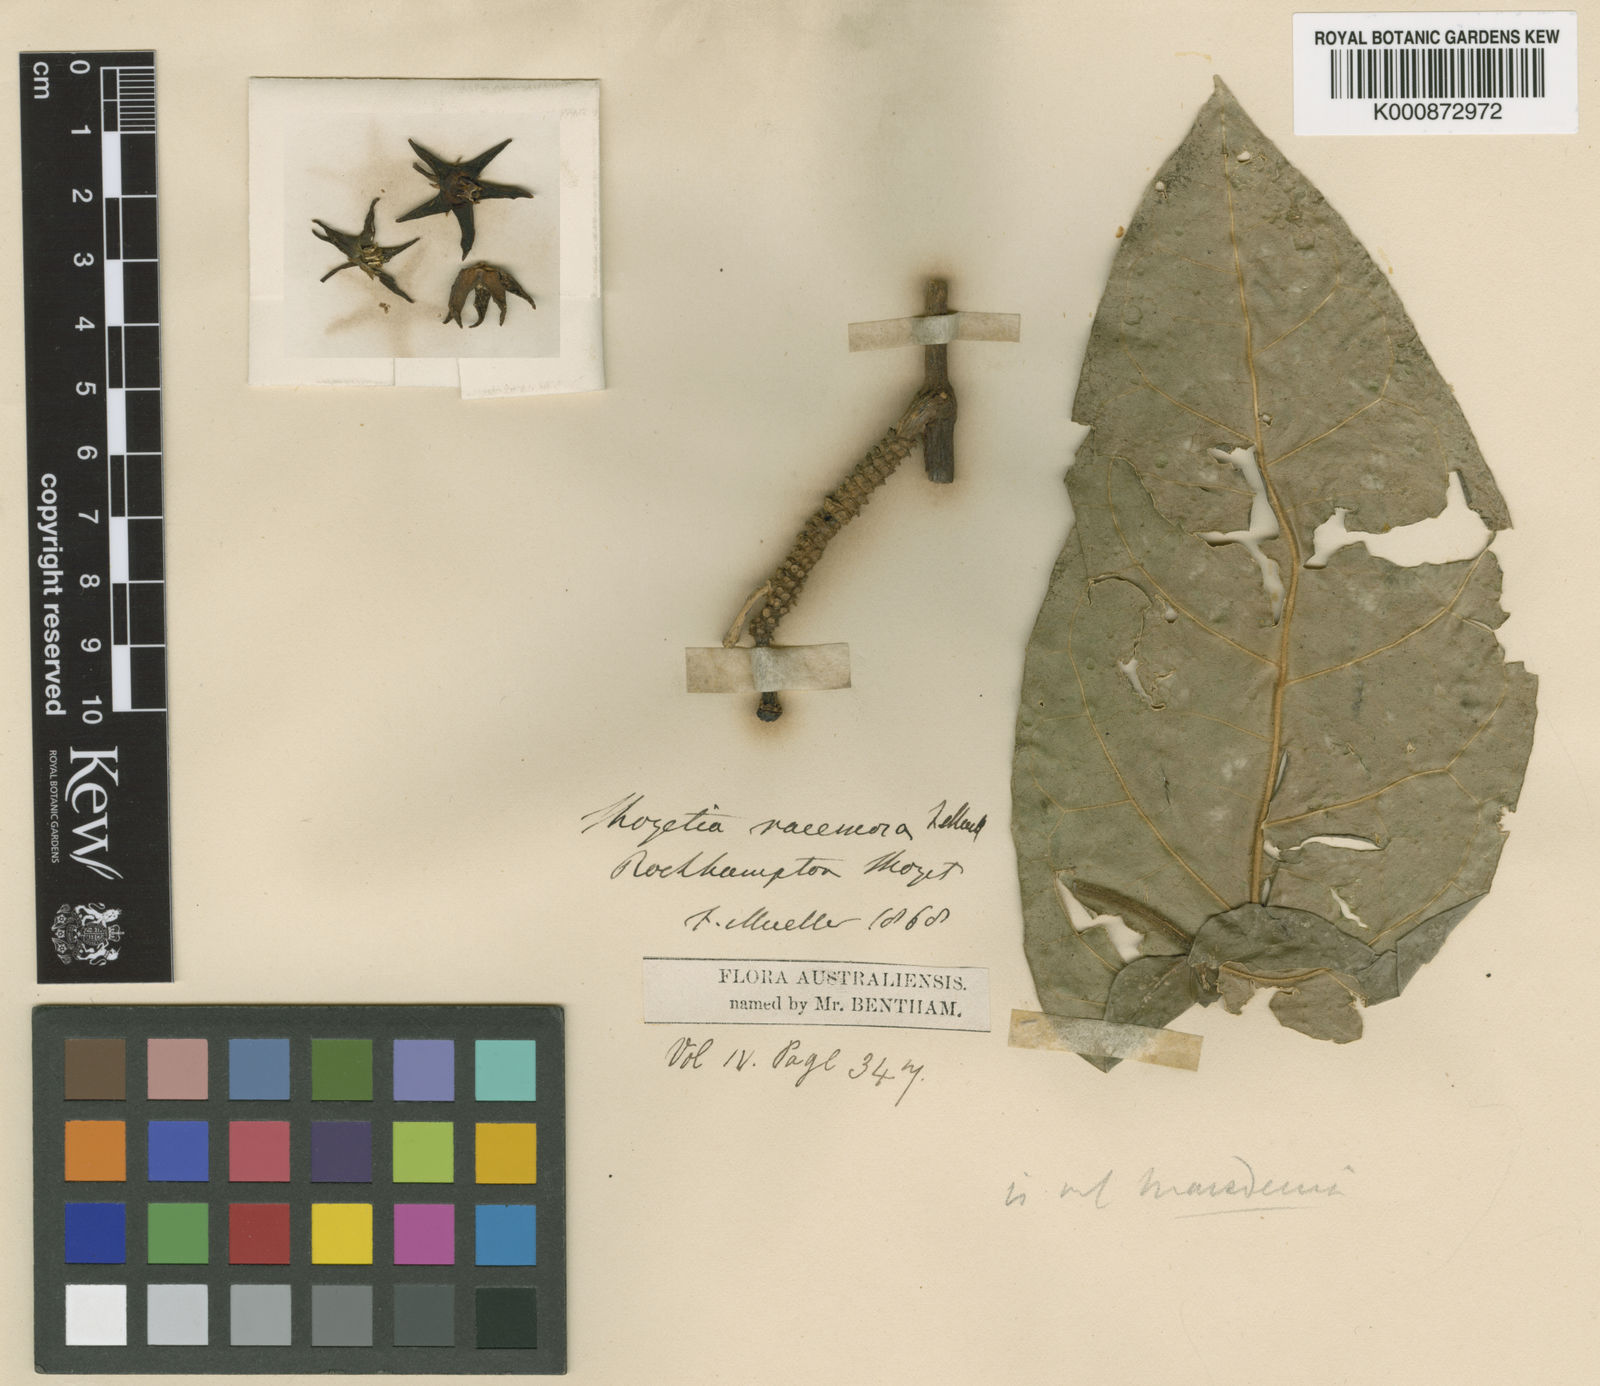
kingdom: Plantae
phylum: Tracheophyta
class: Magnoliopsida
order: Gentianales
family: Apocynaceae
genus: Leichhardtia
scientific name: Leichhardtia racemosa
